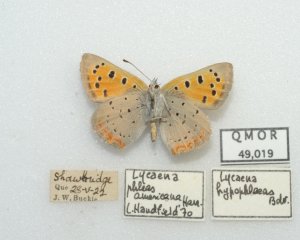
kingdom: Animalia
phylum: Arthropoda
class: Insecta
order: Lepidoptera
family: Lycaenidae
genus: Lycaena
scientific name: Lycaena phlaeas
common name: American Copper
